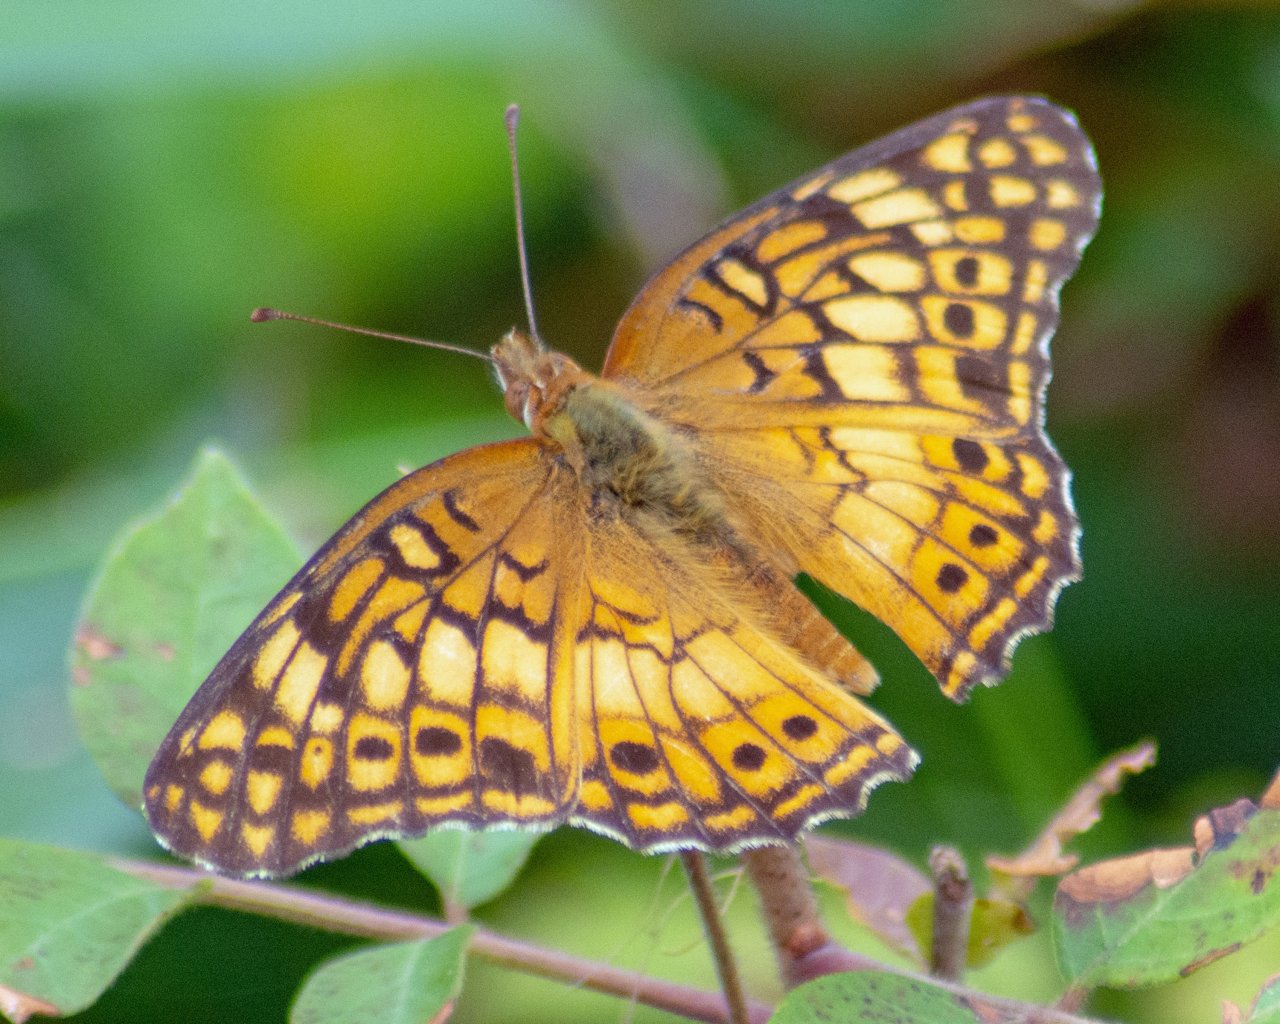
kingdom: Animalia
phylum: Arthropoda
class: Insecta
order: Lepidoptera
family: Nymphalidae
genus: Euptoieta
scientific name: Euptoieta claudia
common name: Variegated Fritillary
